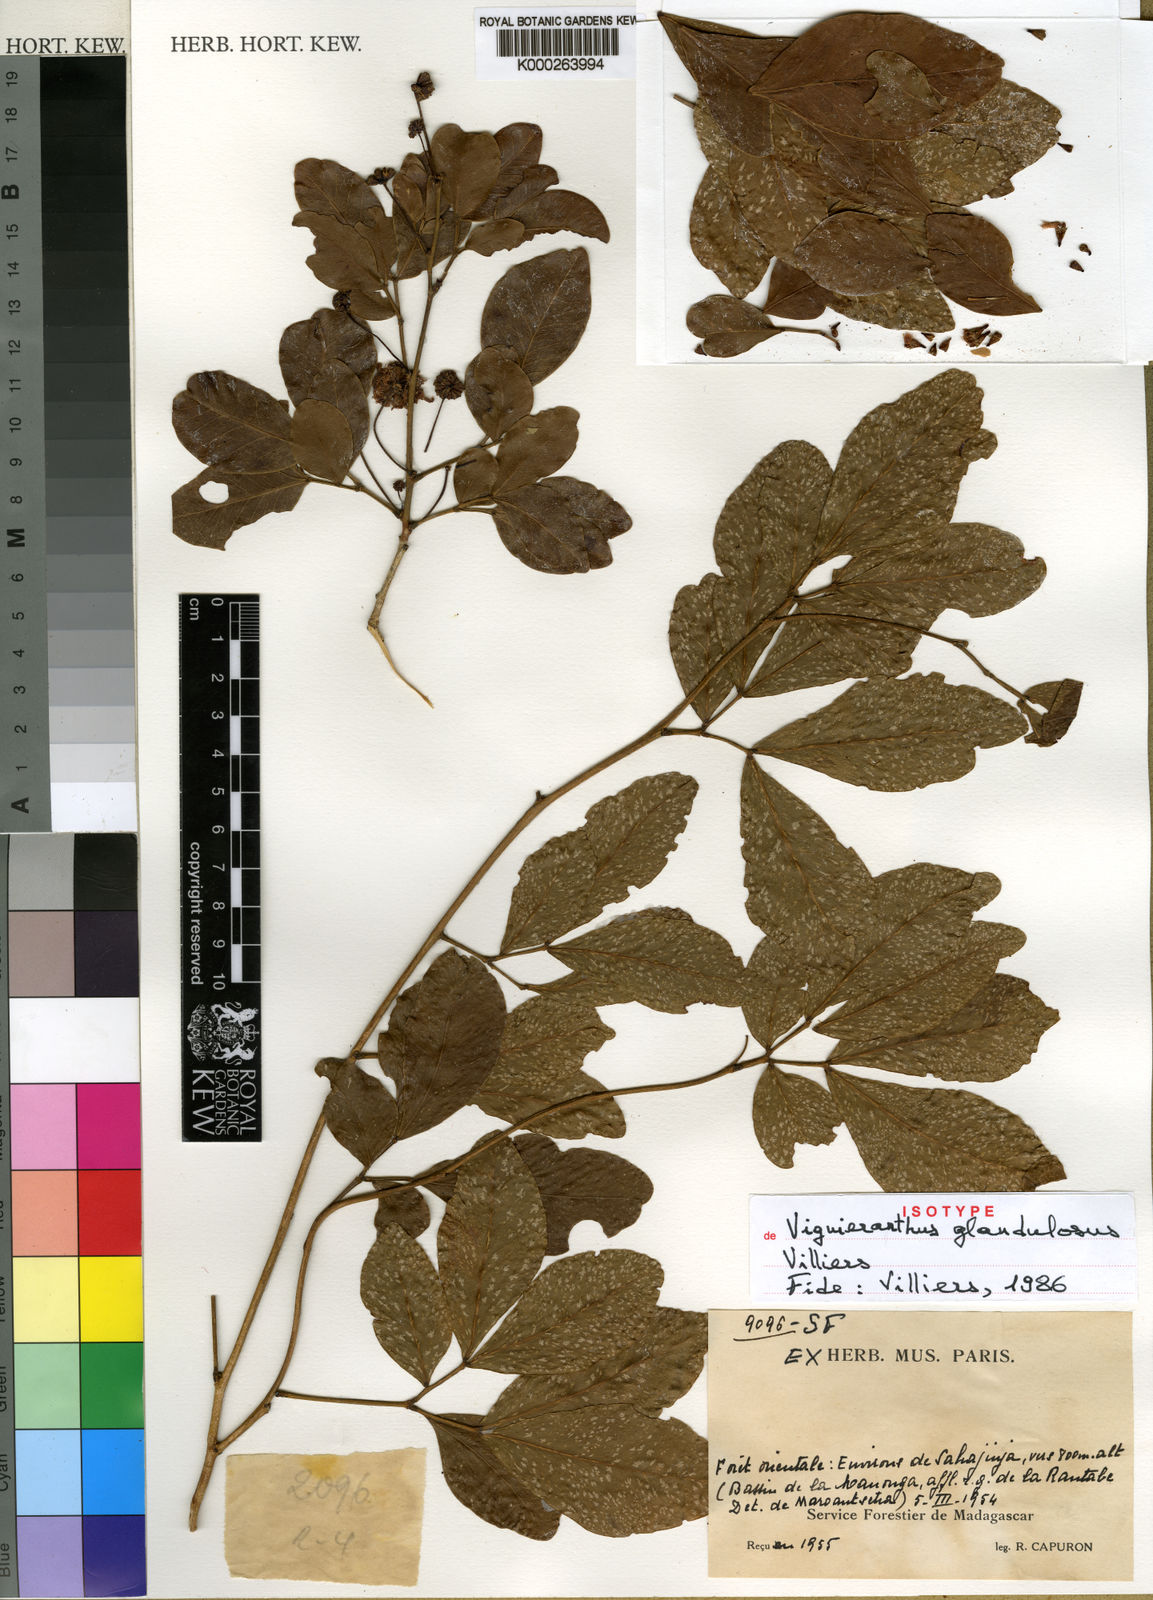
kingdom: Plantae
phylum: Tracheophyta
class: Magnoliopsida
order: Fabales
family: Fabaceae
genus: Viguieranthus
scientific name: Viguieranthus glandulosus
